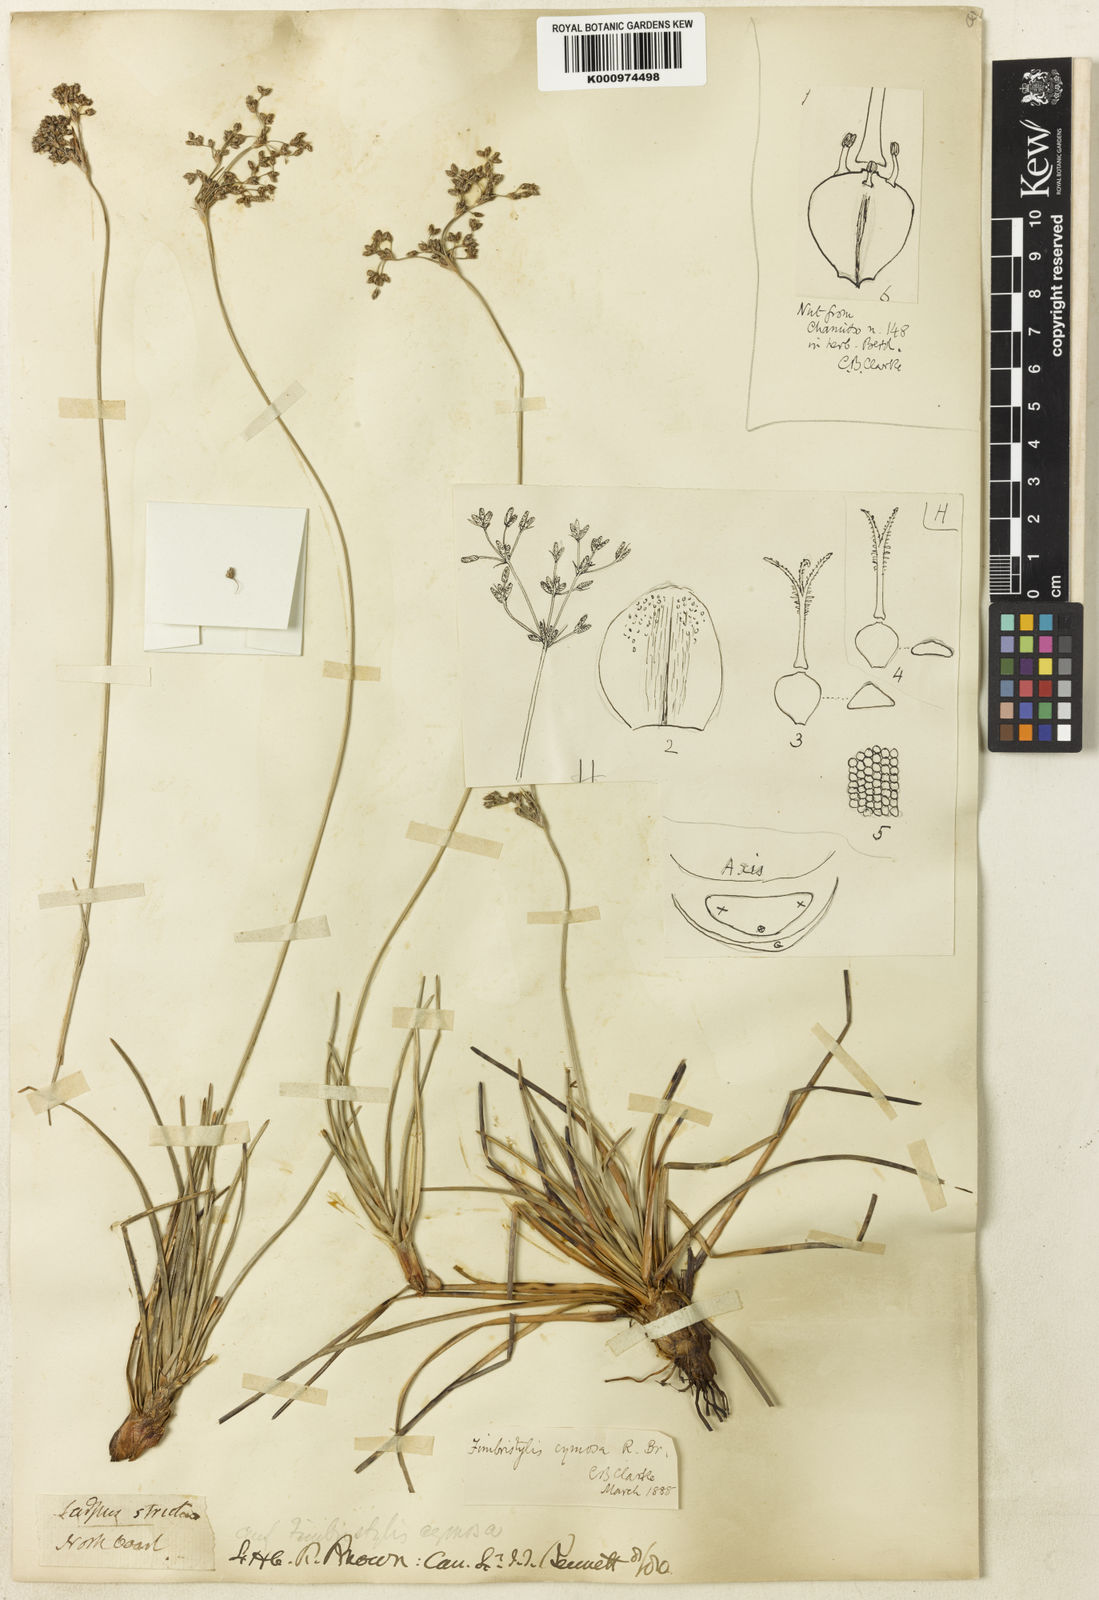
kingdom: Plantae
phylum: Tracheophyta
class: Liliopsida
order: Poales
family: Cyperaceae
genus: Fimbristylis
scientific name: Fimbristylis cymosa
